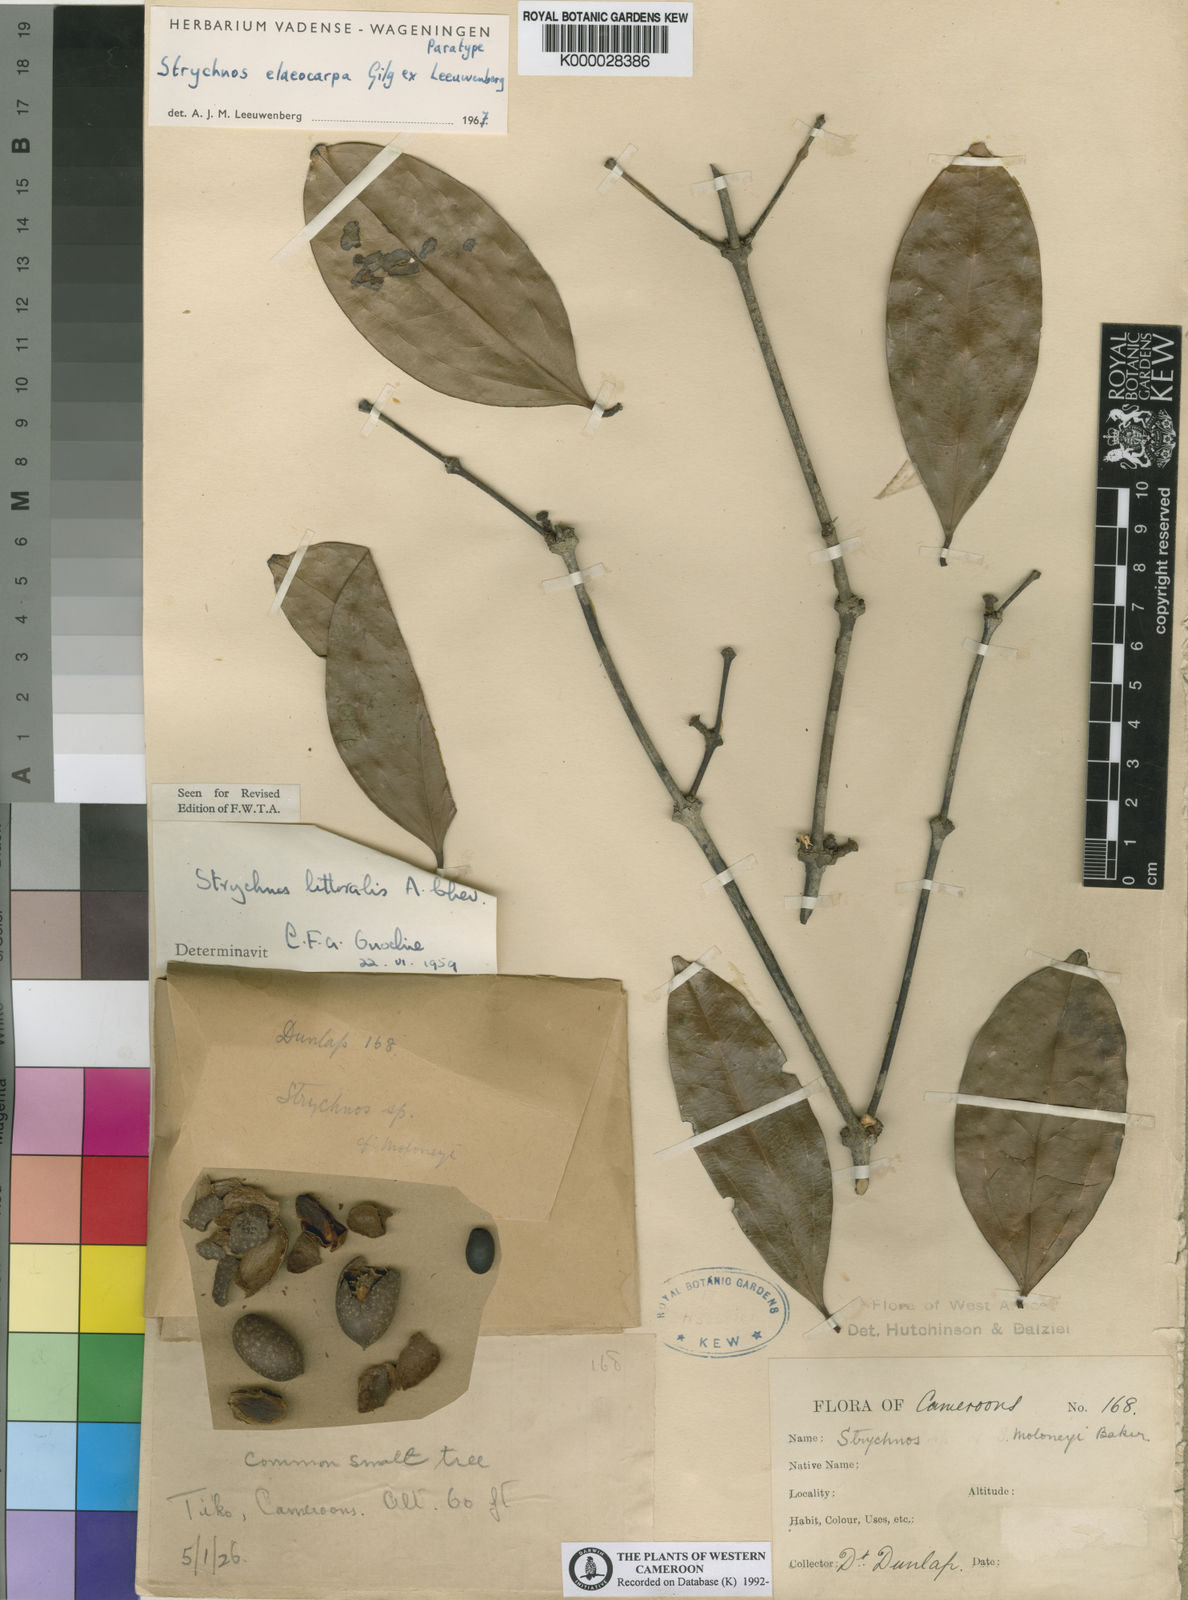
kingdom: Plantae
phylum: Tracheophyta
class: Magnoliopsida
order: Gentianales
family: Loganiaceae
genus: Strychnos
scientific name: Strychnos elaeocarpa
